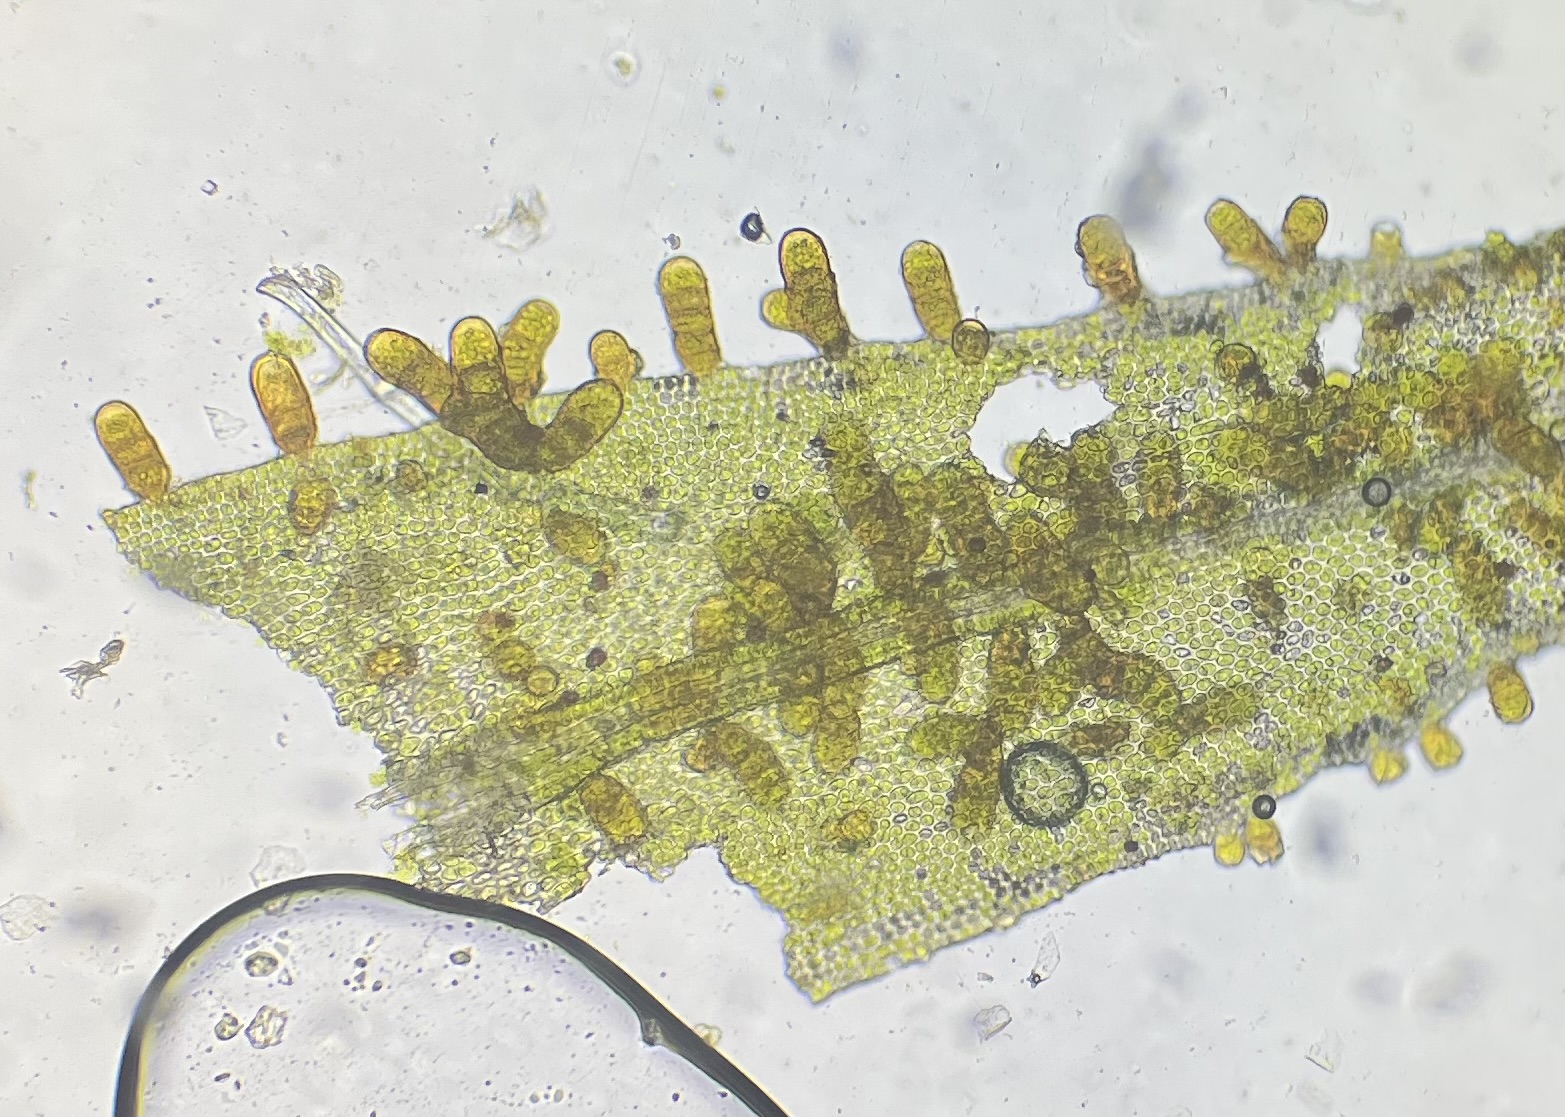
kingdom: Plantae
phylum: Bryophyta
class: Bryopsida
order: Orthotrichales
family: Orthotrichaceae
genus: Pulvigera
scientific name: Pulvigera lyellii
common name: Stor furehætte
